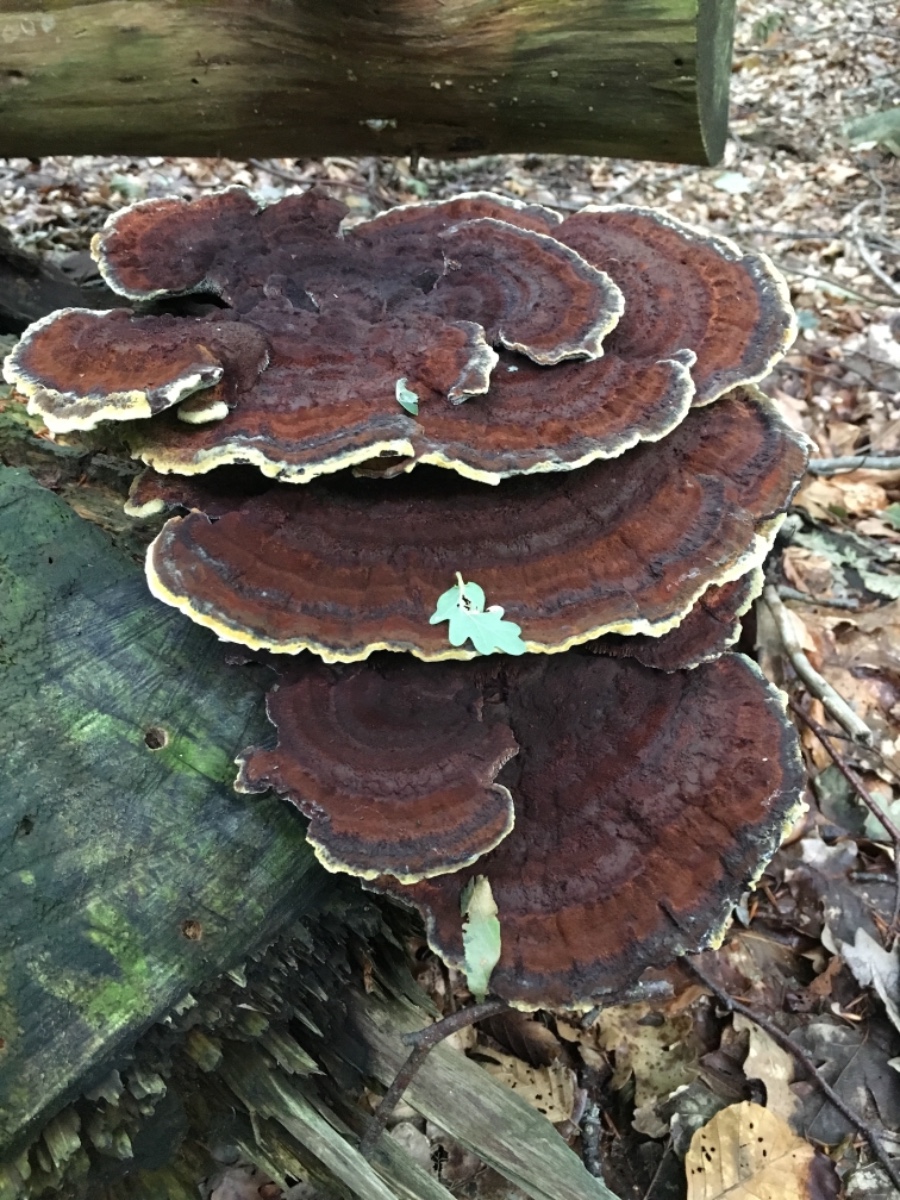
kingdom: Fungi
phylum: Basidiomycota
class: Agaricomycetes
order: Polyporales
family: Laetiporaceae
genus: Phaeolus
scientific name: Phaeolus schweinitzii
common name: brunporesvamp
